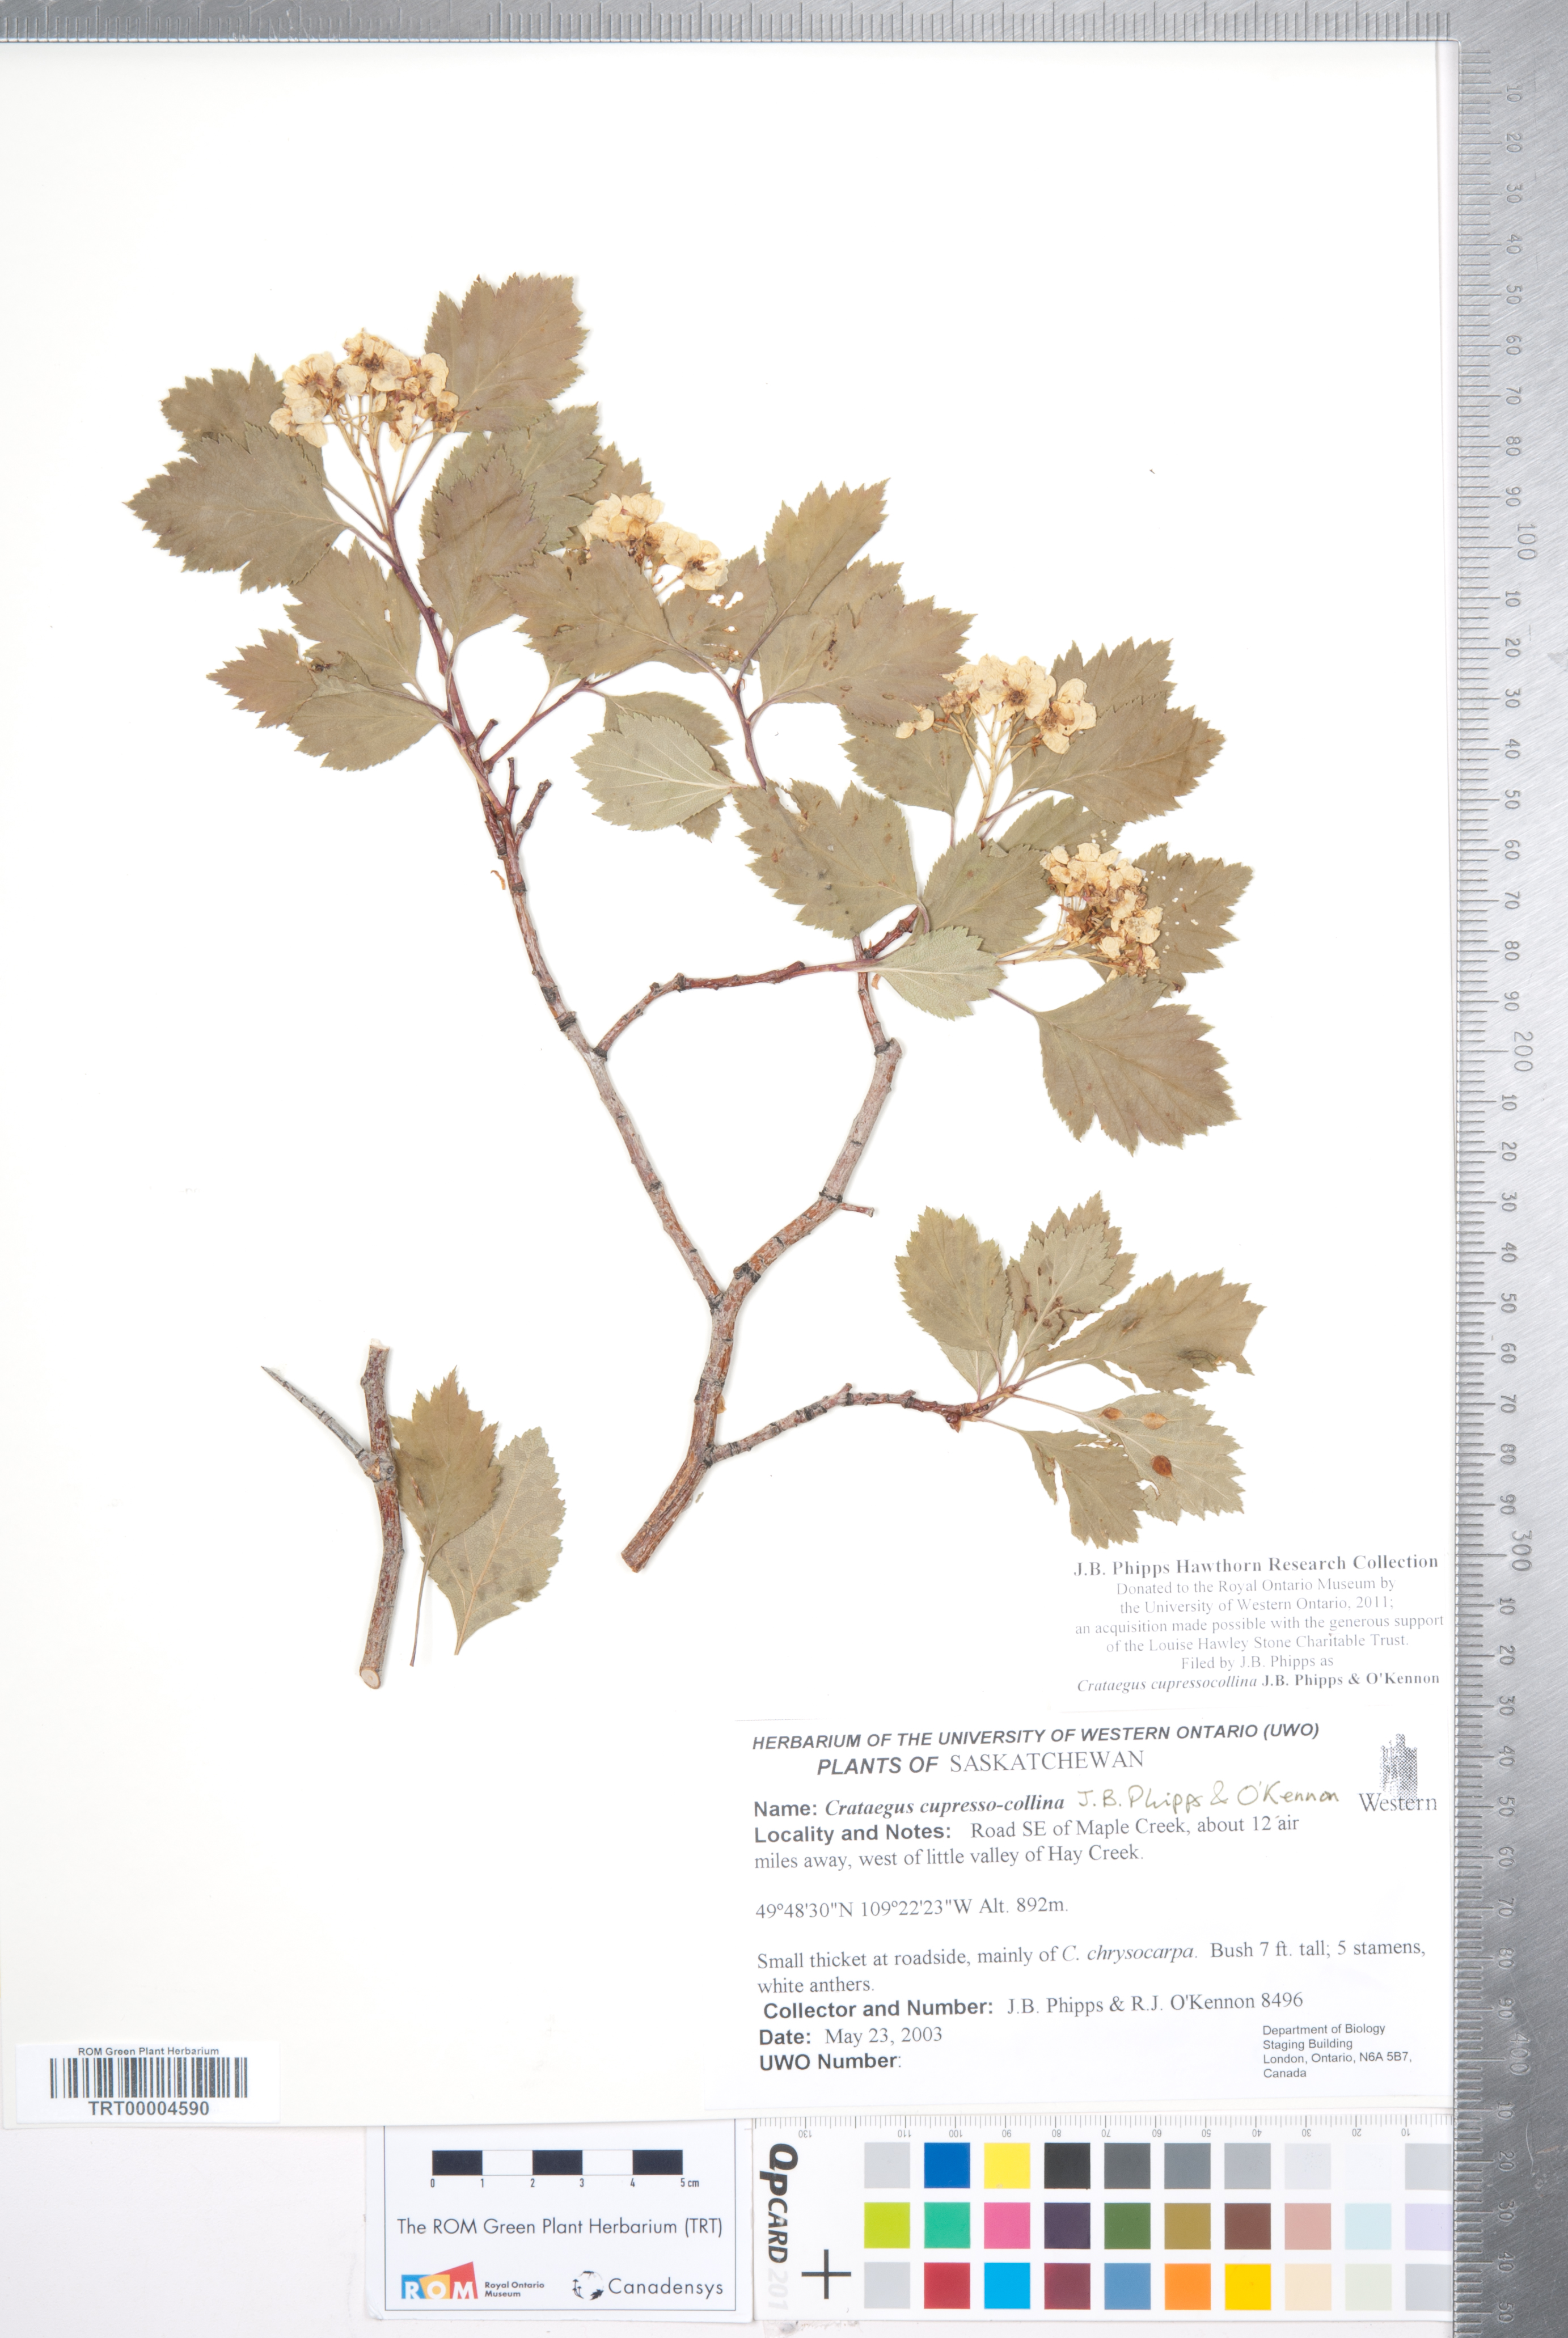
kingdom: Plantae
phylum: Tracheophyta
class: Magnoliopsida
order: Rosales
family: Rosaceae
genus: Crataegus
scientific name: Crataegus cupressocollina
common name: Cypress hills hawthorn
